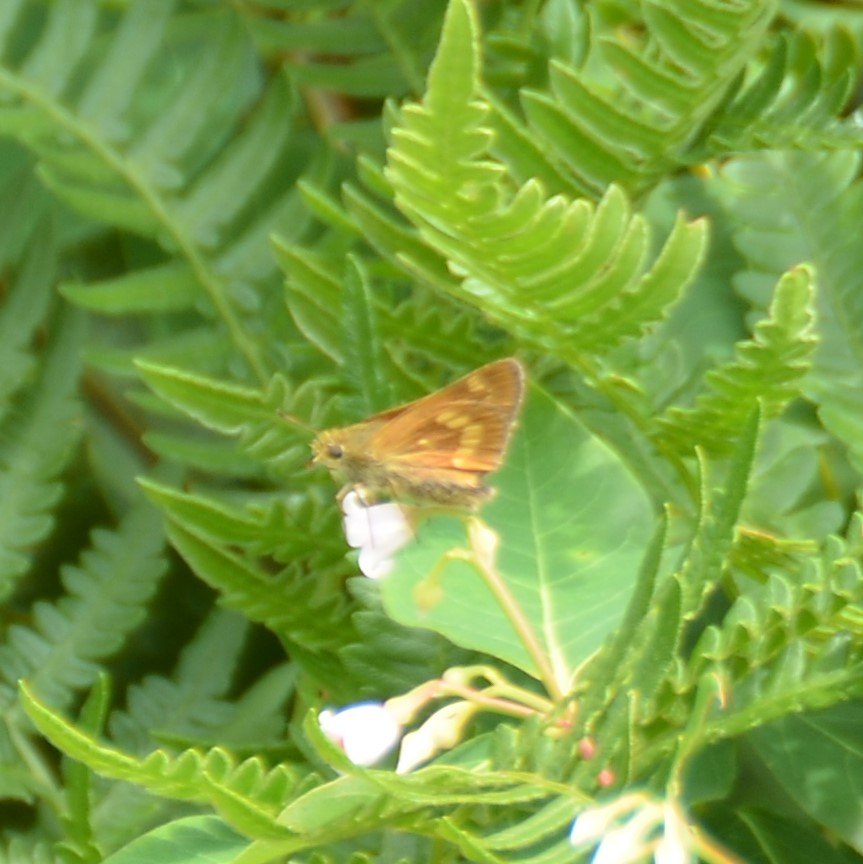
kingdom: Animalia
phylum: Arthropoda
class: Insecta
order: Lepidoptera
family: Hesperiidae
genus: Polites
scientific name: Polites
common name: Long Dash Skipper
